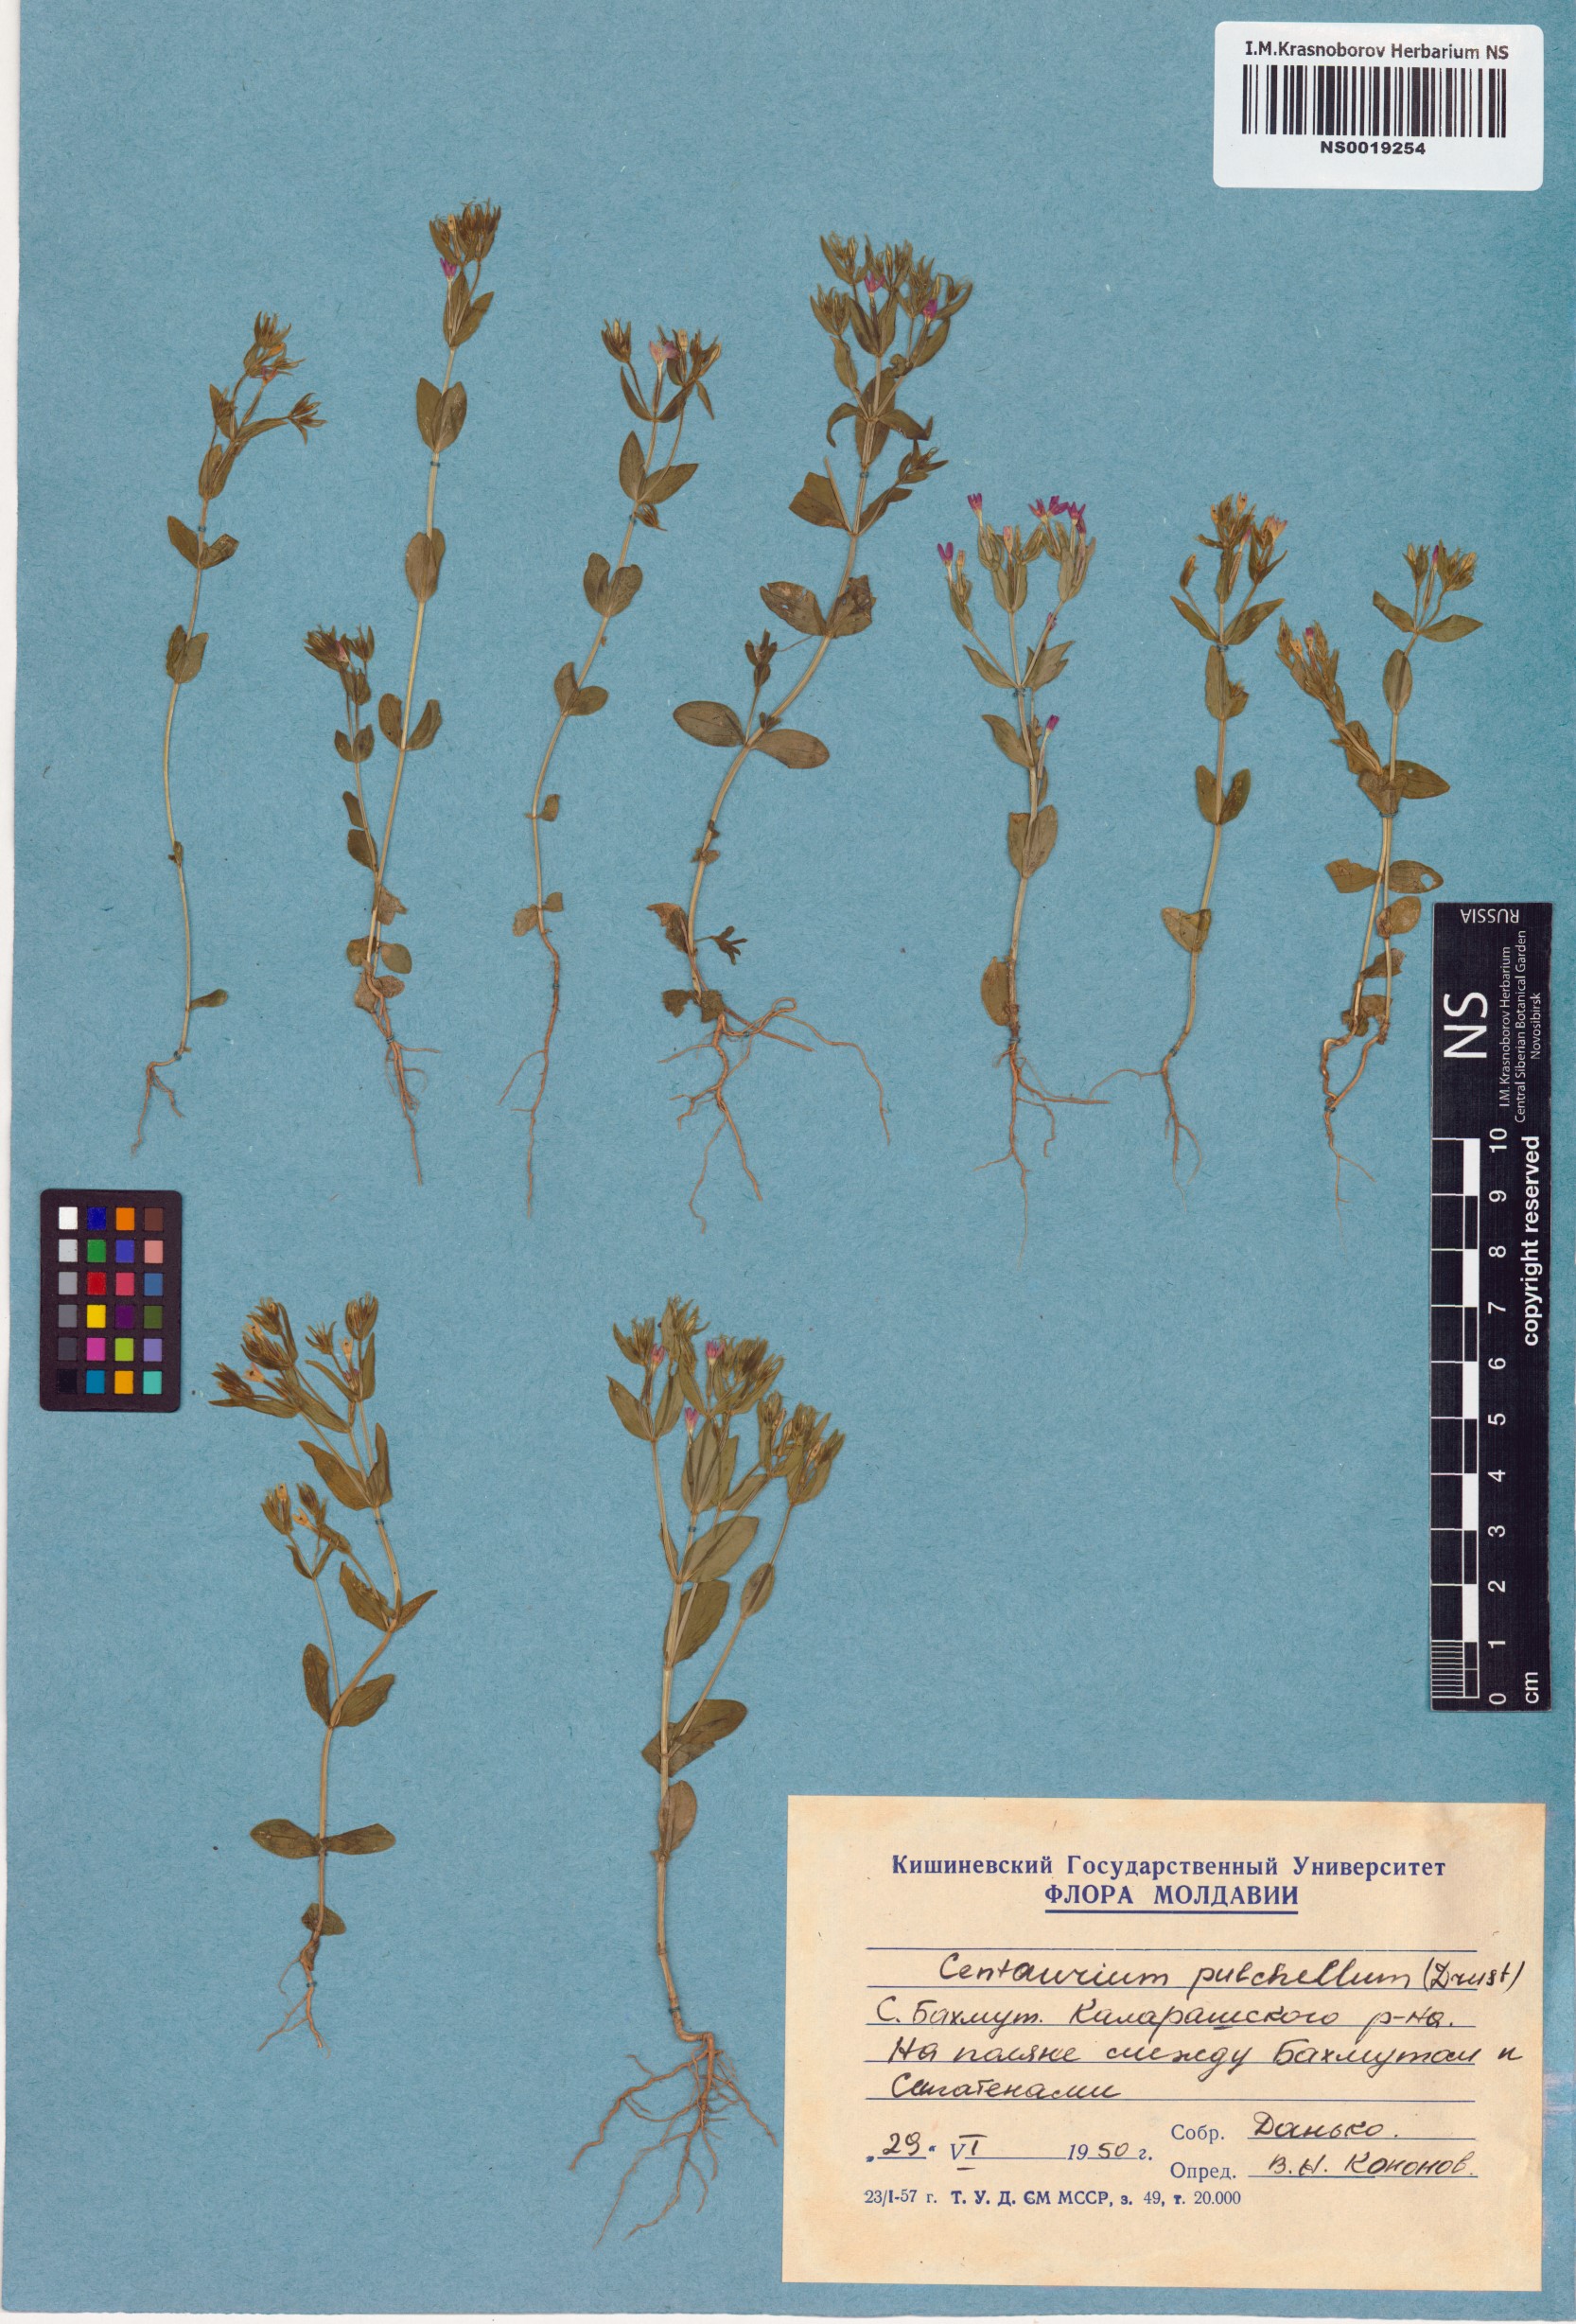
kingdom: Plantae
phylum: Tracheophyta
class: Magnoliopsida
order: Gentianales
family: Gentianaceae
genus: Centaurium
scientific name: Centaurium pulchellum
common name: Lesser centaury
